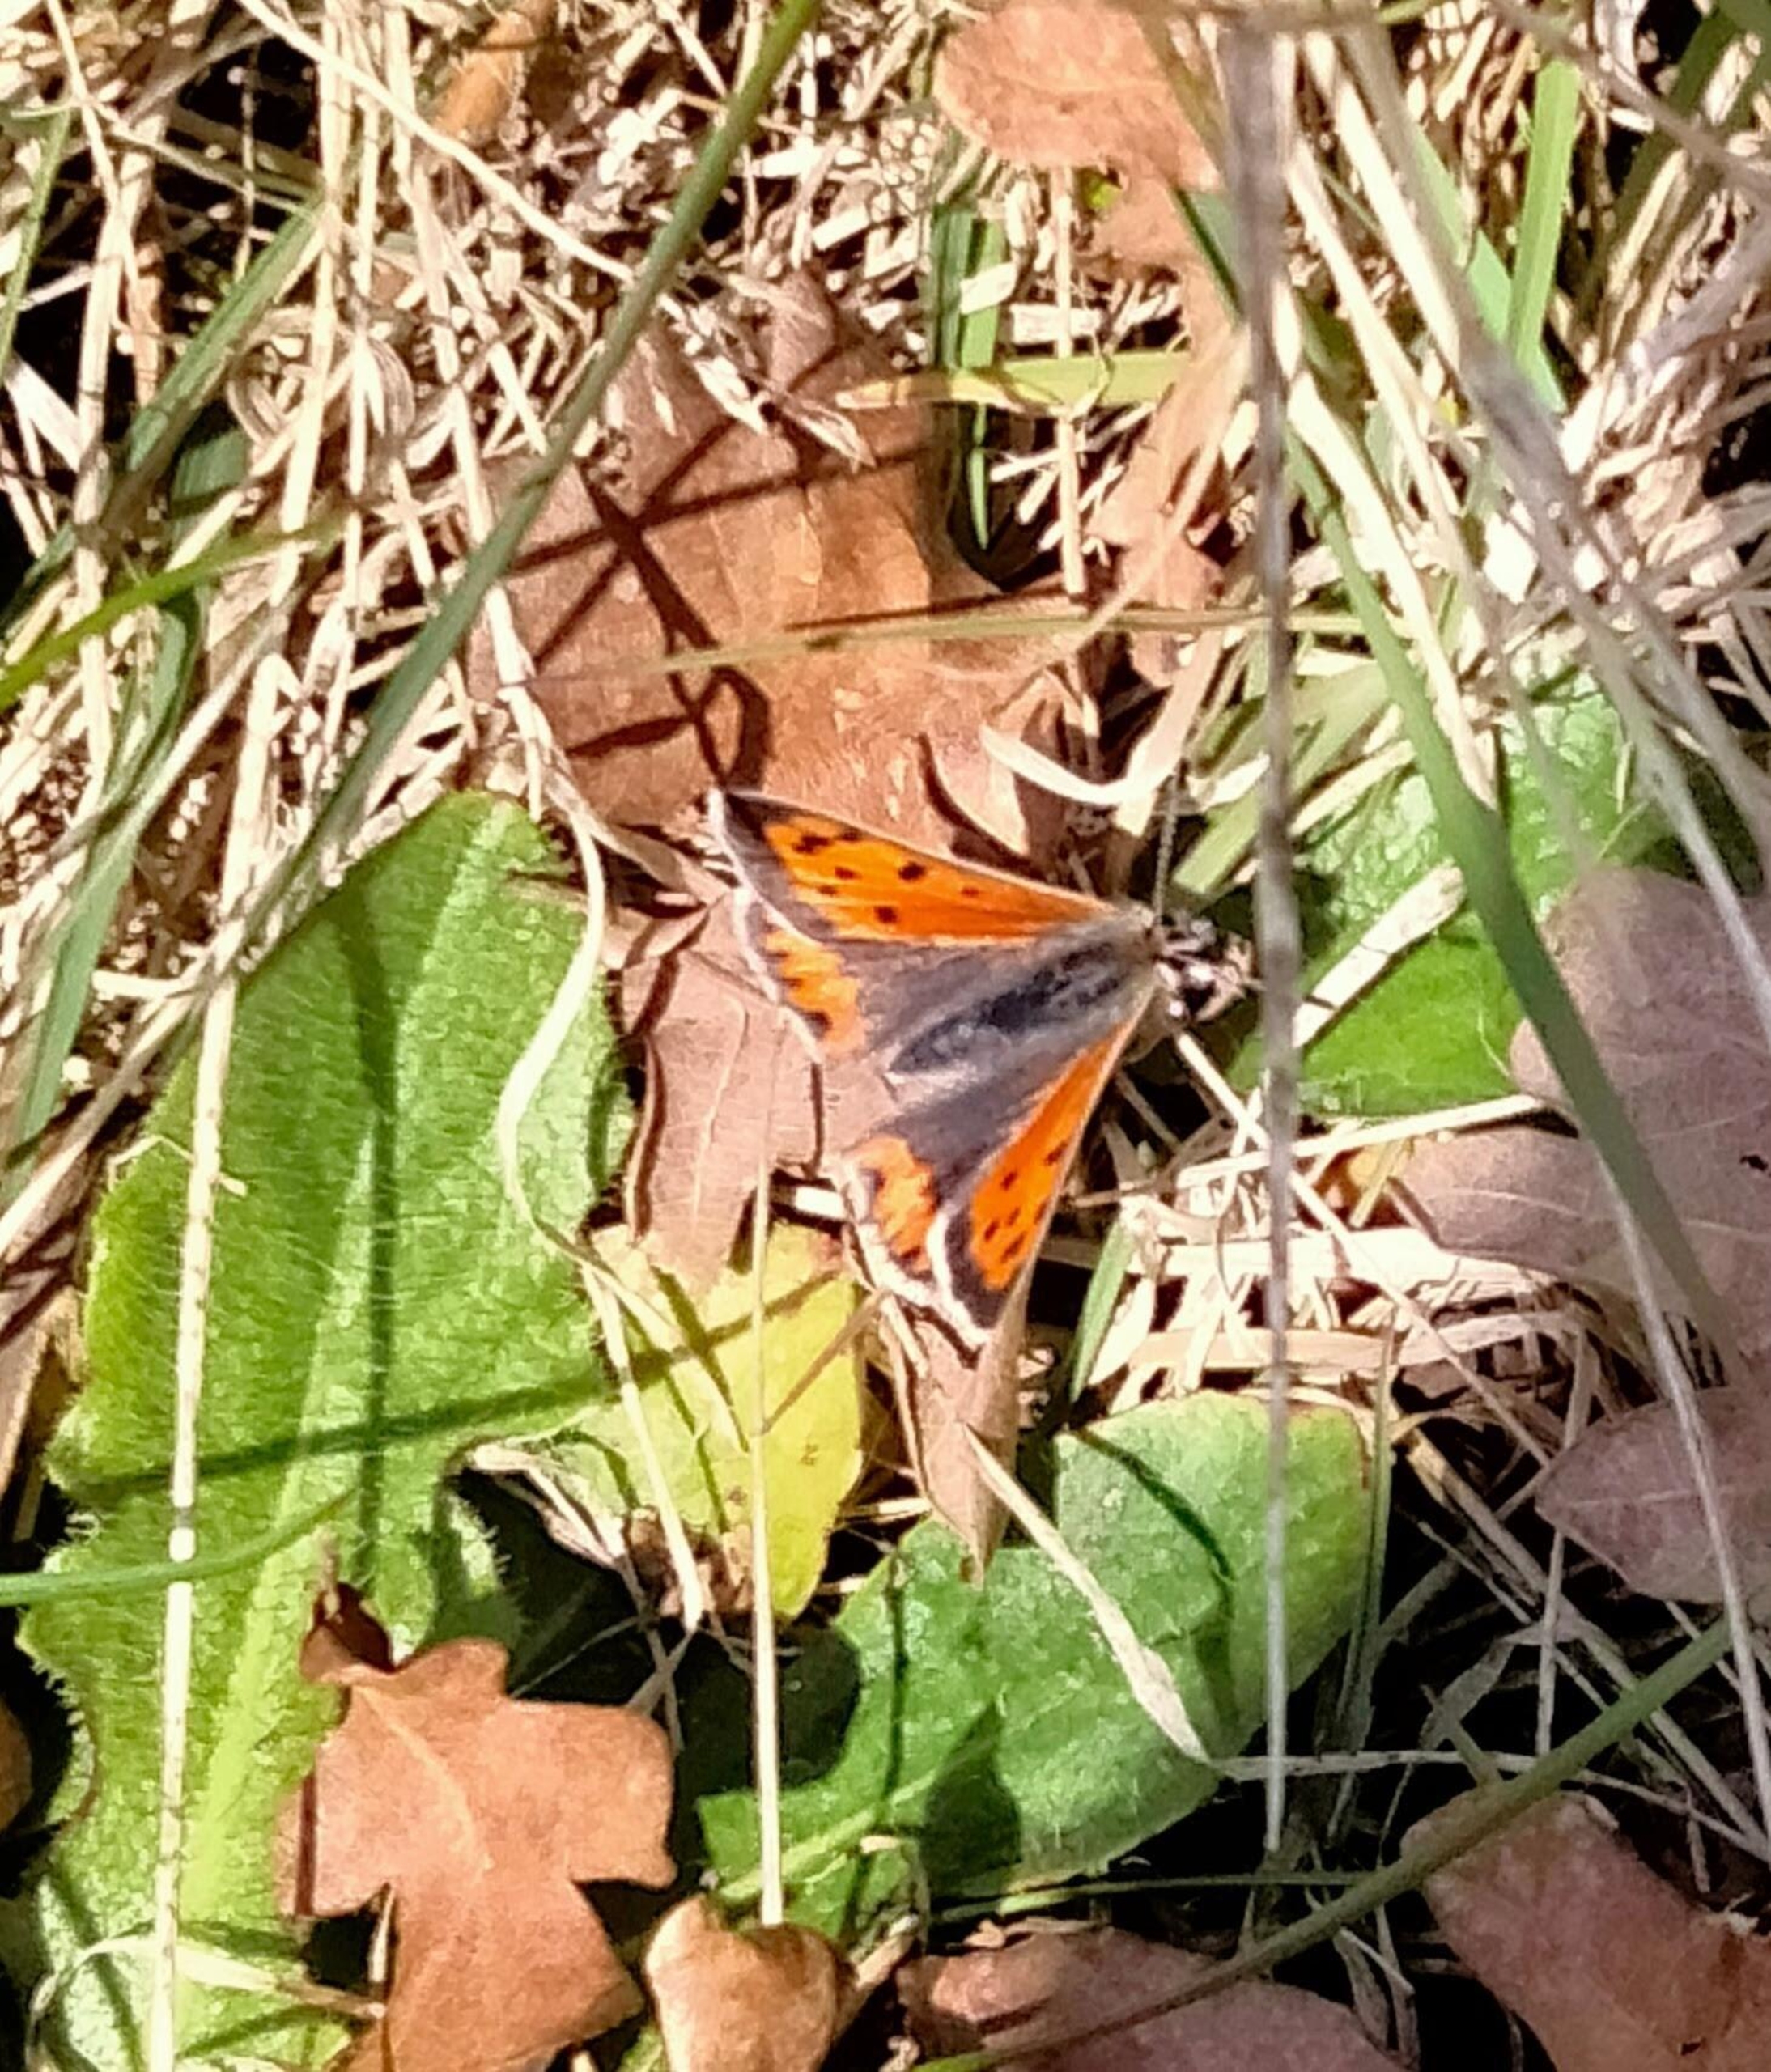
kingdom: Animalia
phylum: Arthropoda
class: Insecta
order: Lepidoptera
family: Lycaenidae
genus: Lycaena
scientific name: Lycaena phlaeas
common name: Lille ildfugl
